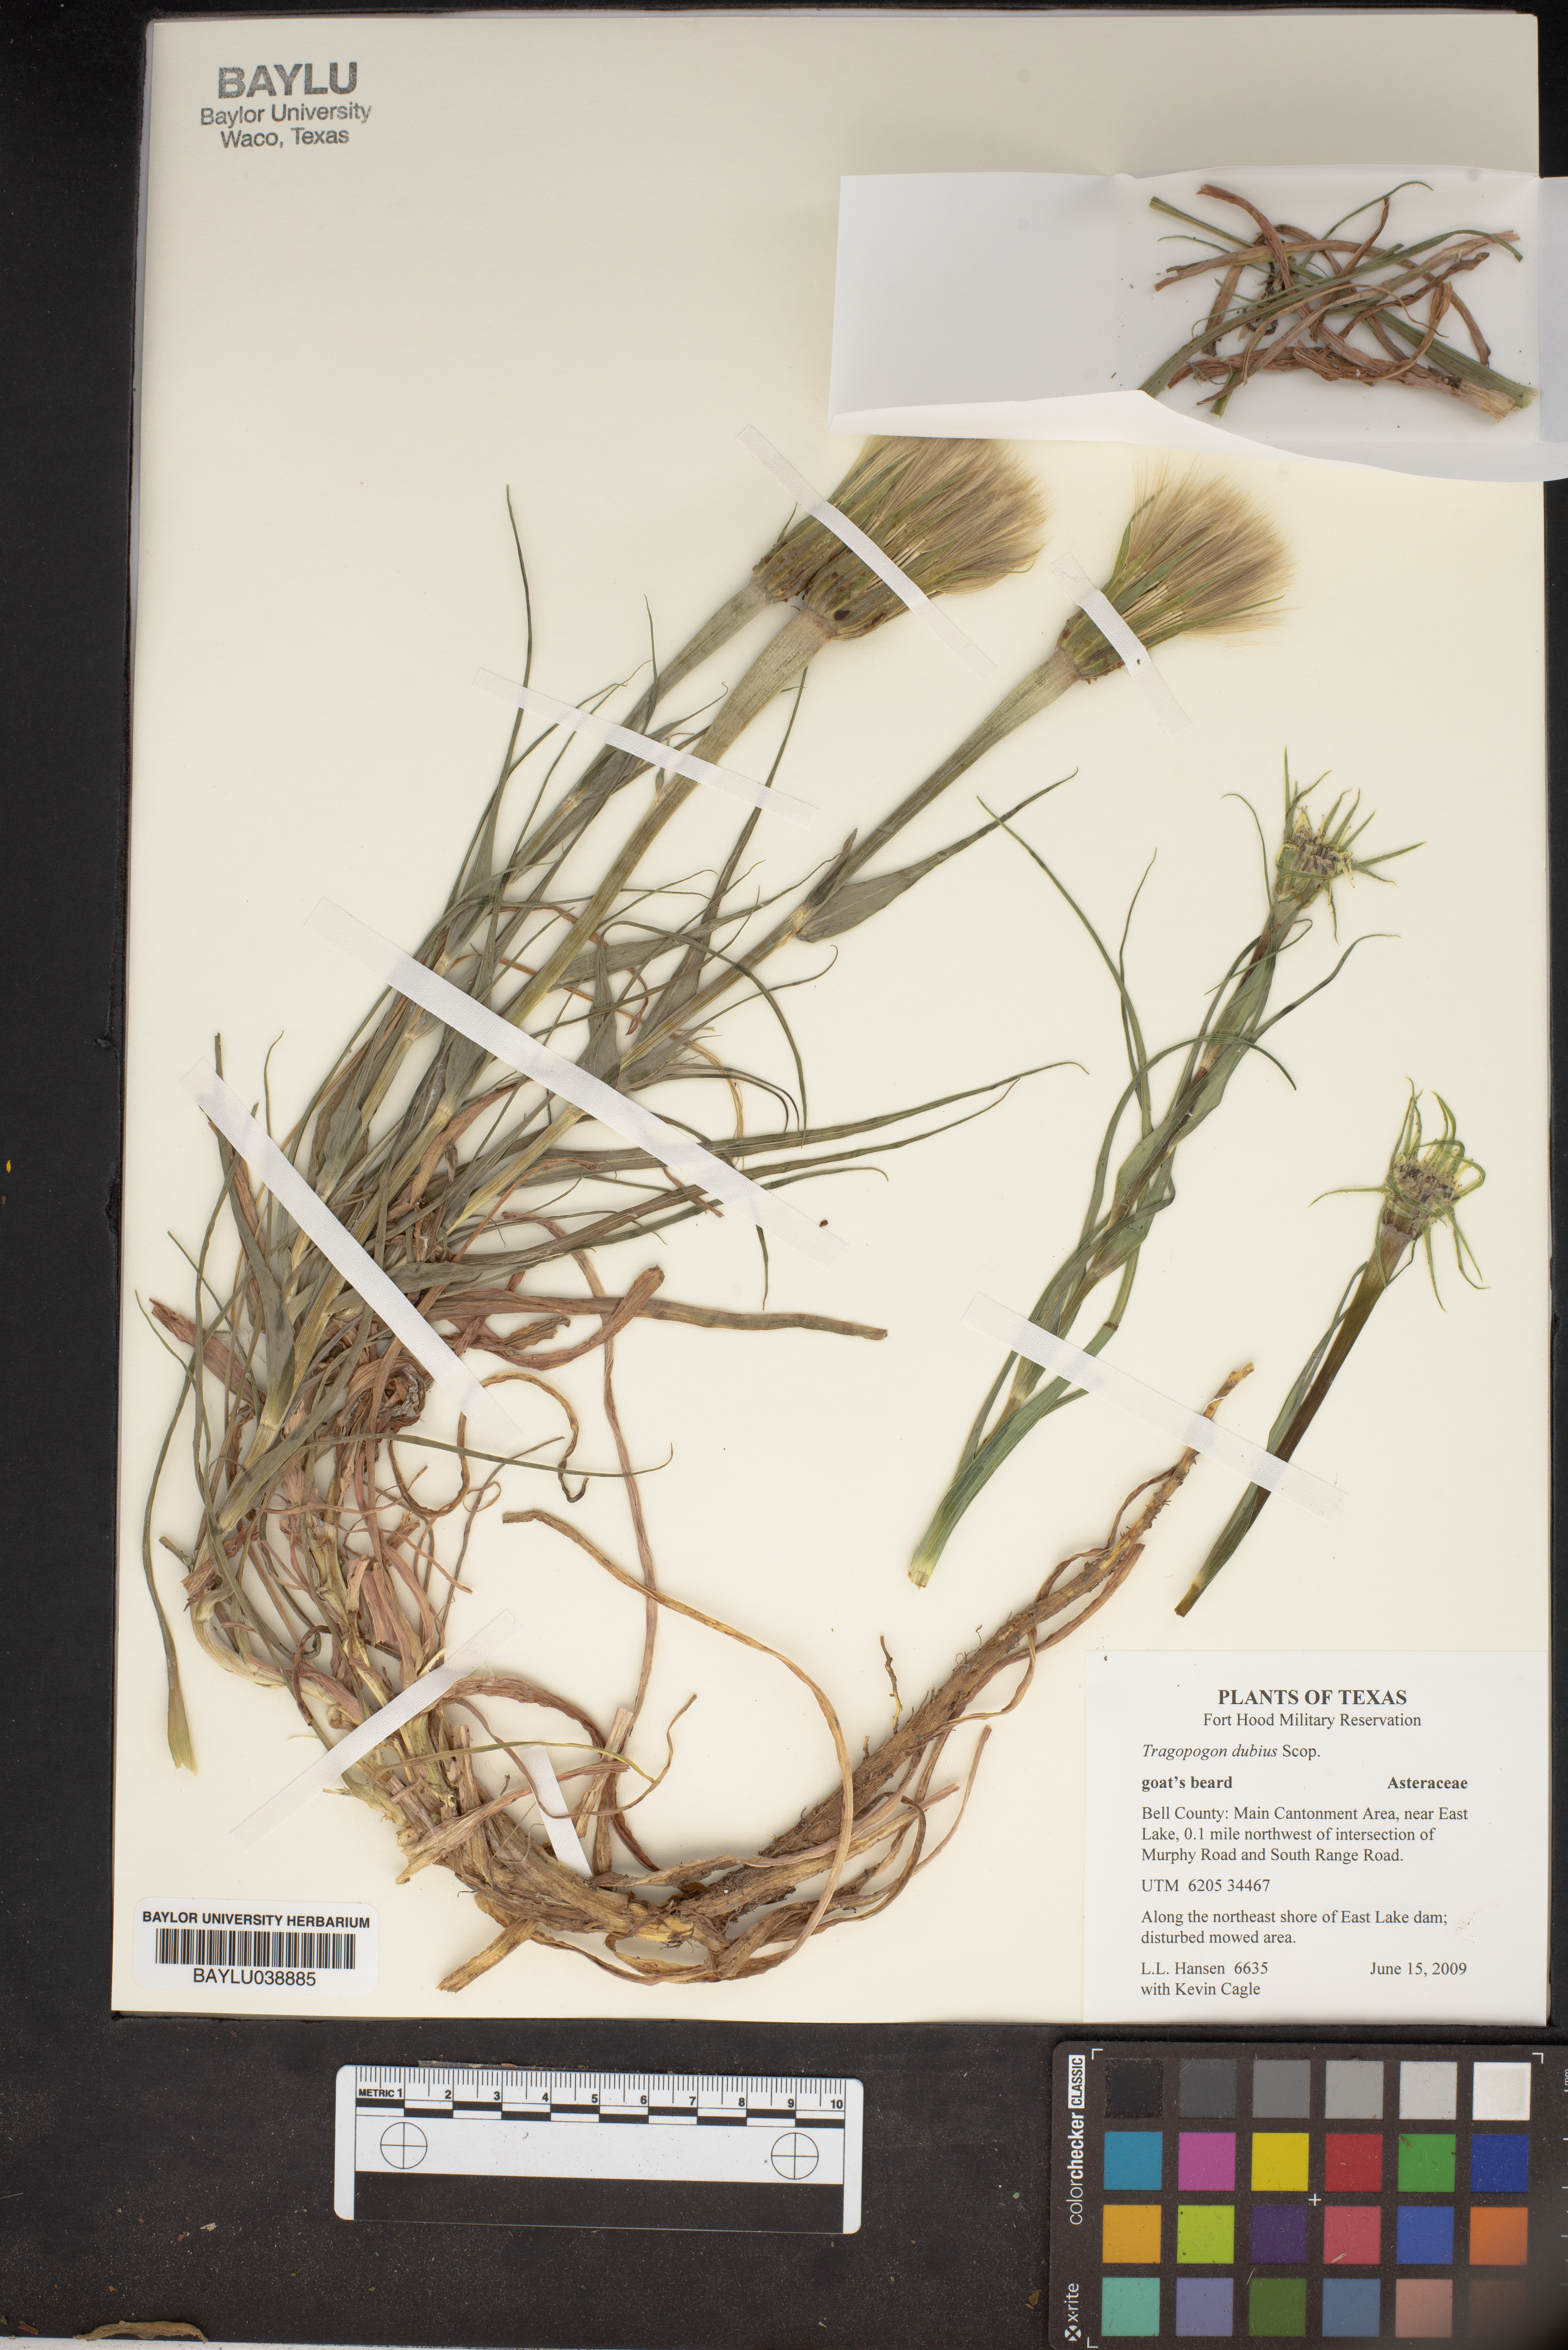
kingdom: Plantae
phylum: Tracheophyta
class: Magnoliopsida
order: Asterales
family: Asteraceae
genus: Tragopogon
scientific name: Tragopogon dubius
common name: Yellow salsify
